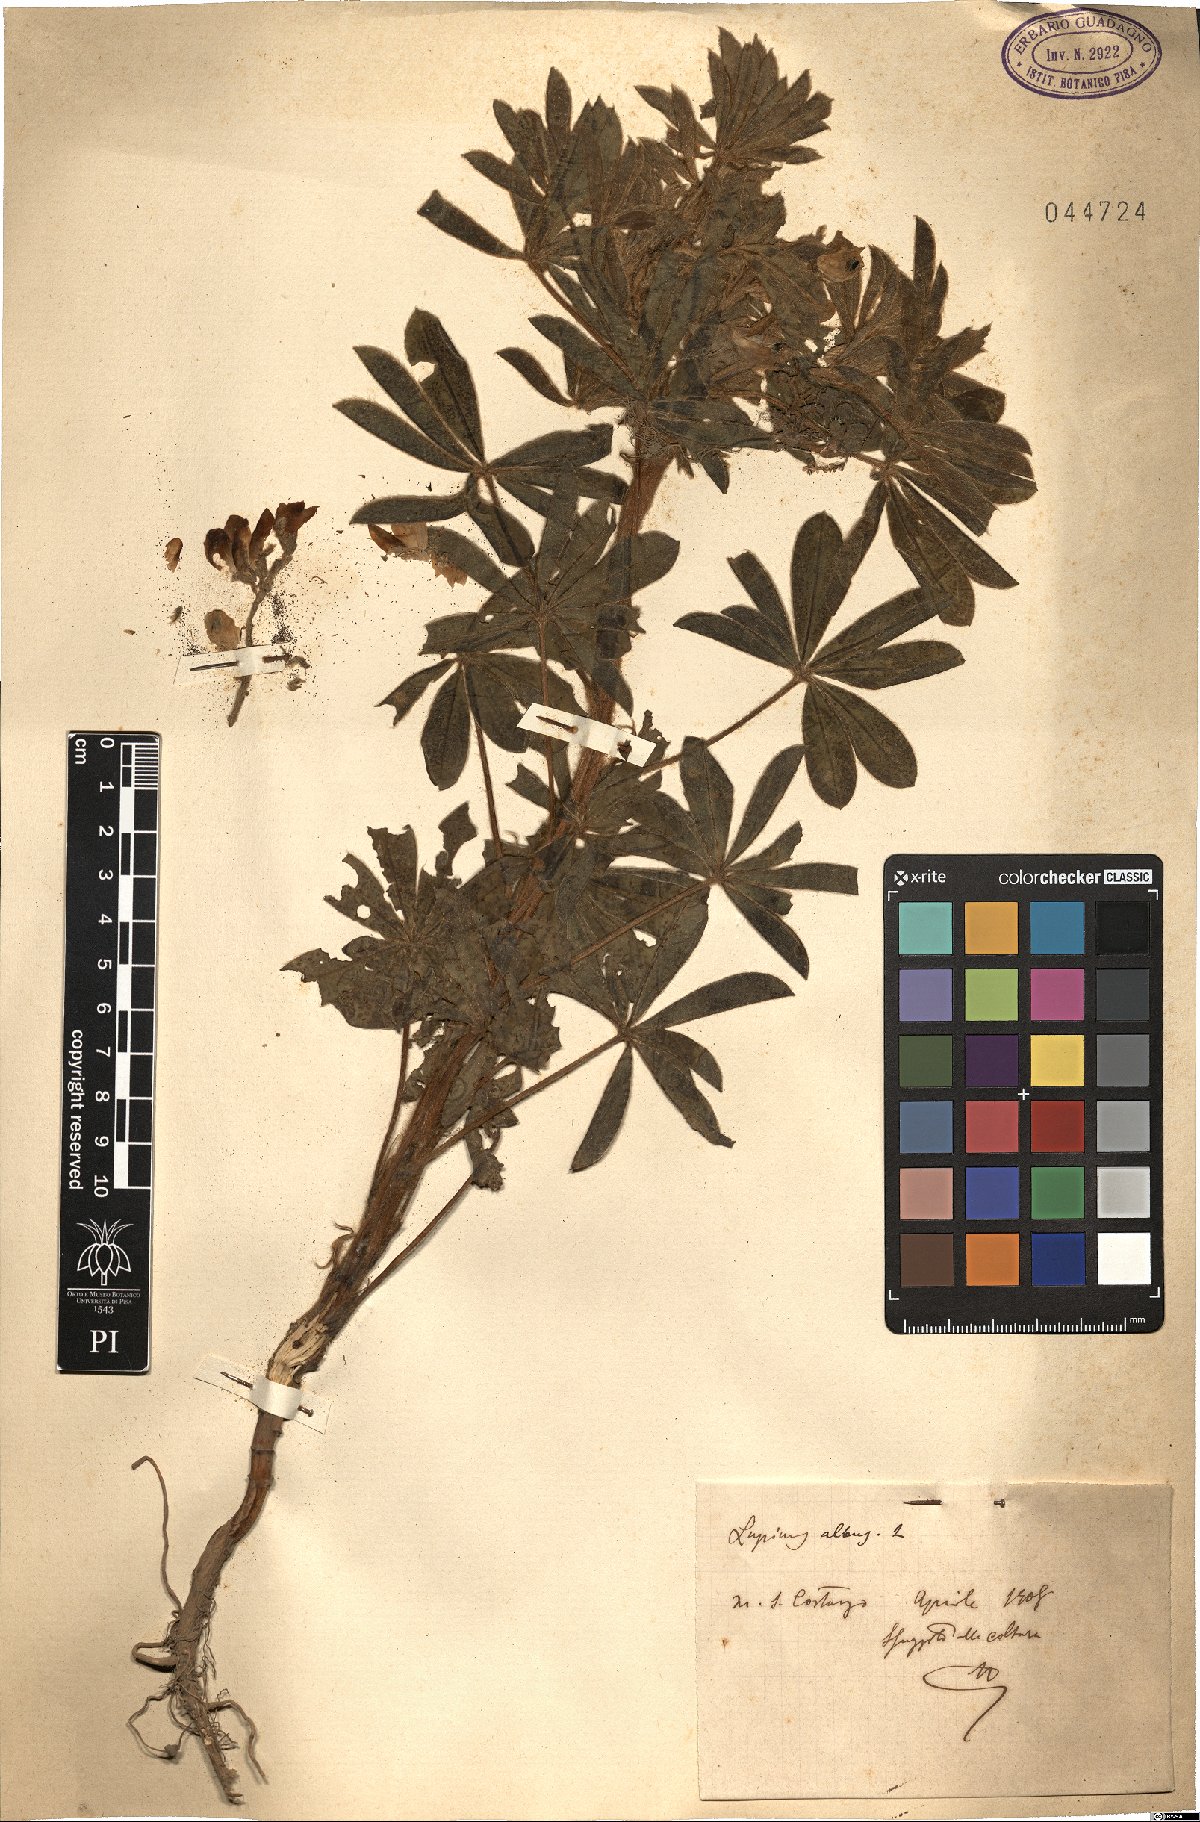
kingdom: Plantae
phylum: Tracheophyta
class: Magnoliopsida
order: Fabales
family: Fabaceae
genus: Lupinus
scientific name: Lupinus albus
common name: White lupin
